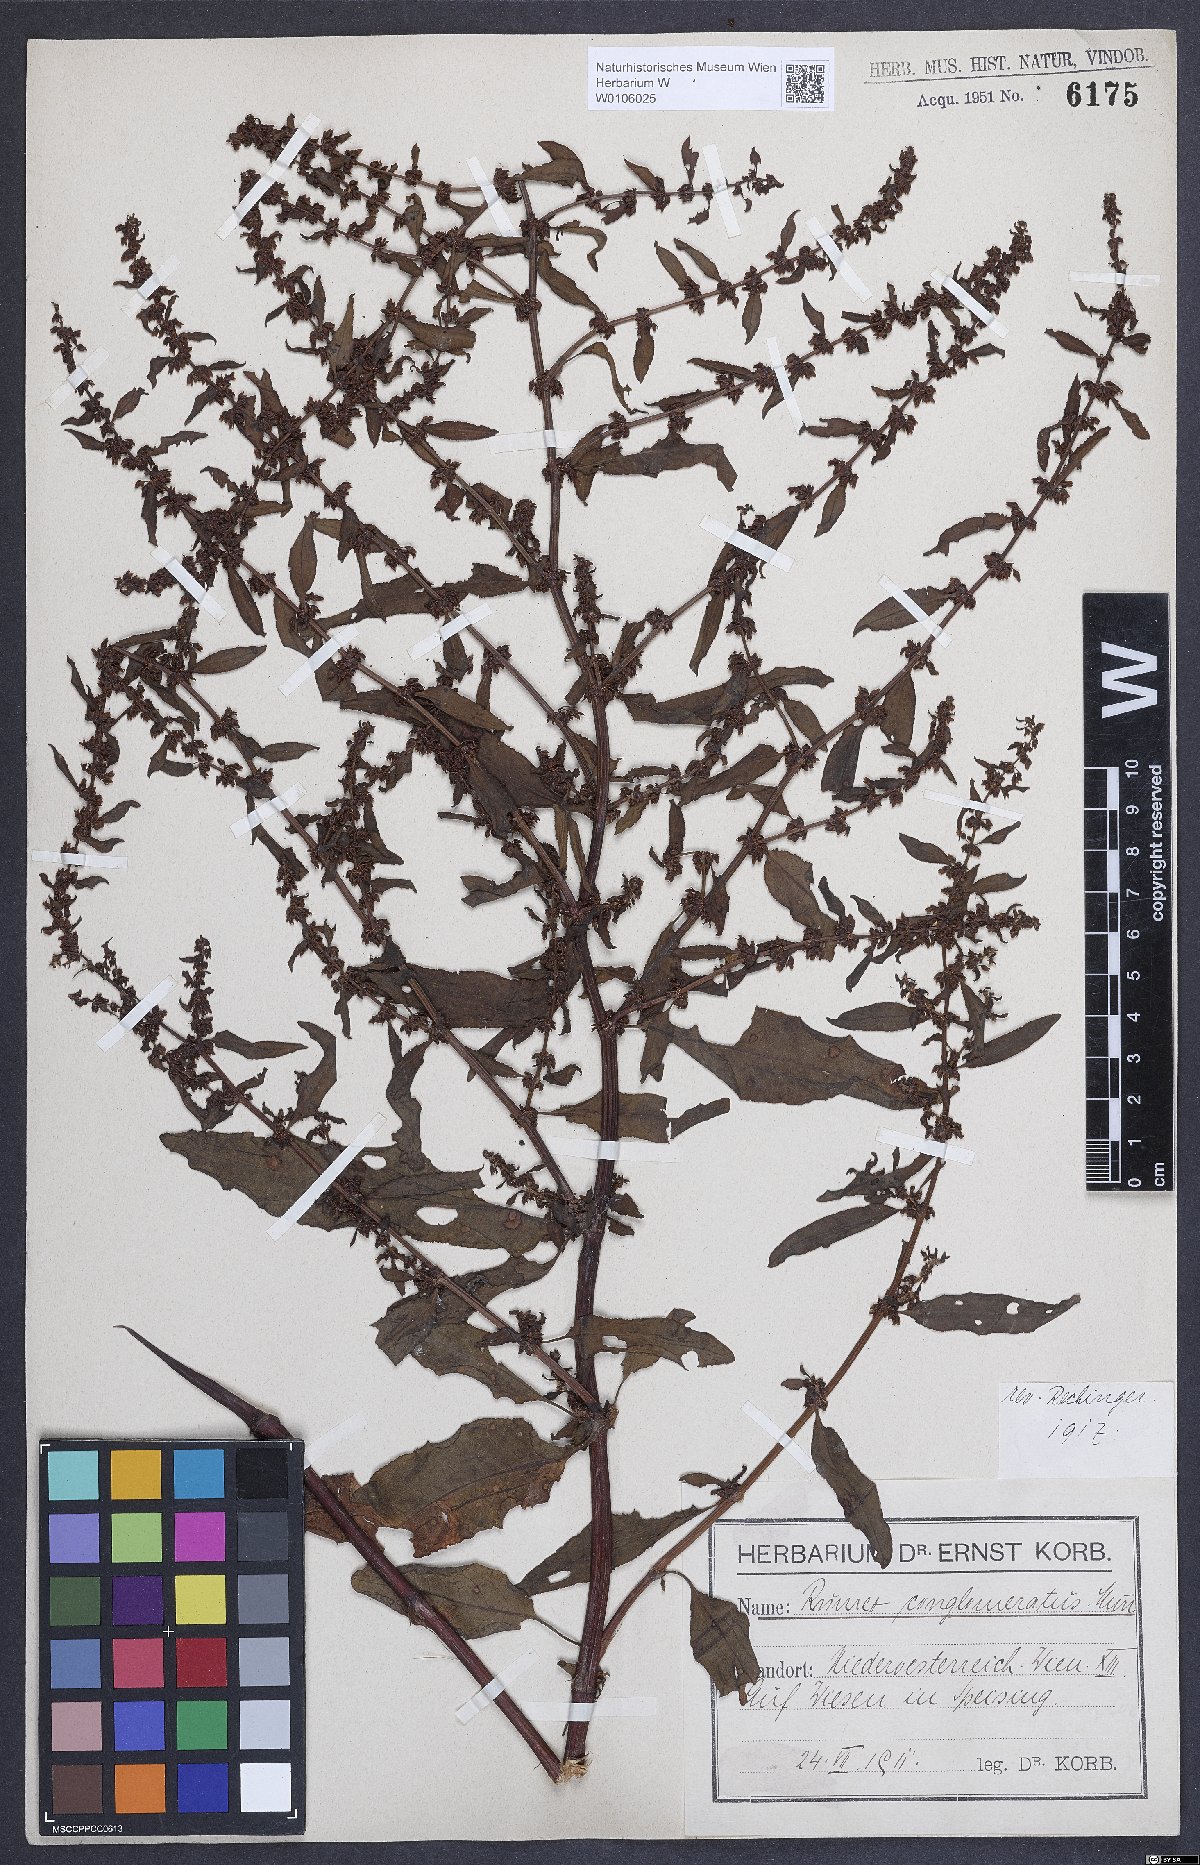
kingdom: Plantae
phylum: Tracheophyta
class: Magnoliopsida
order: Caryophyllales
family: Polygonaceae
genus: Rumex
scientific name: Rumex conglomeratus
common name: Clustered dock
